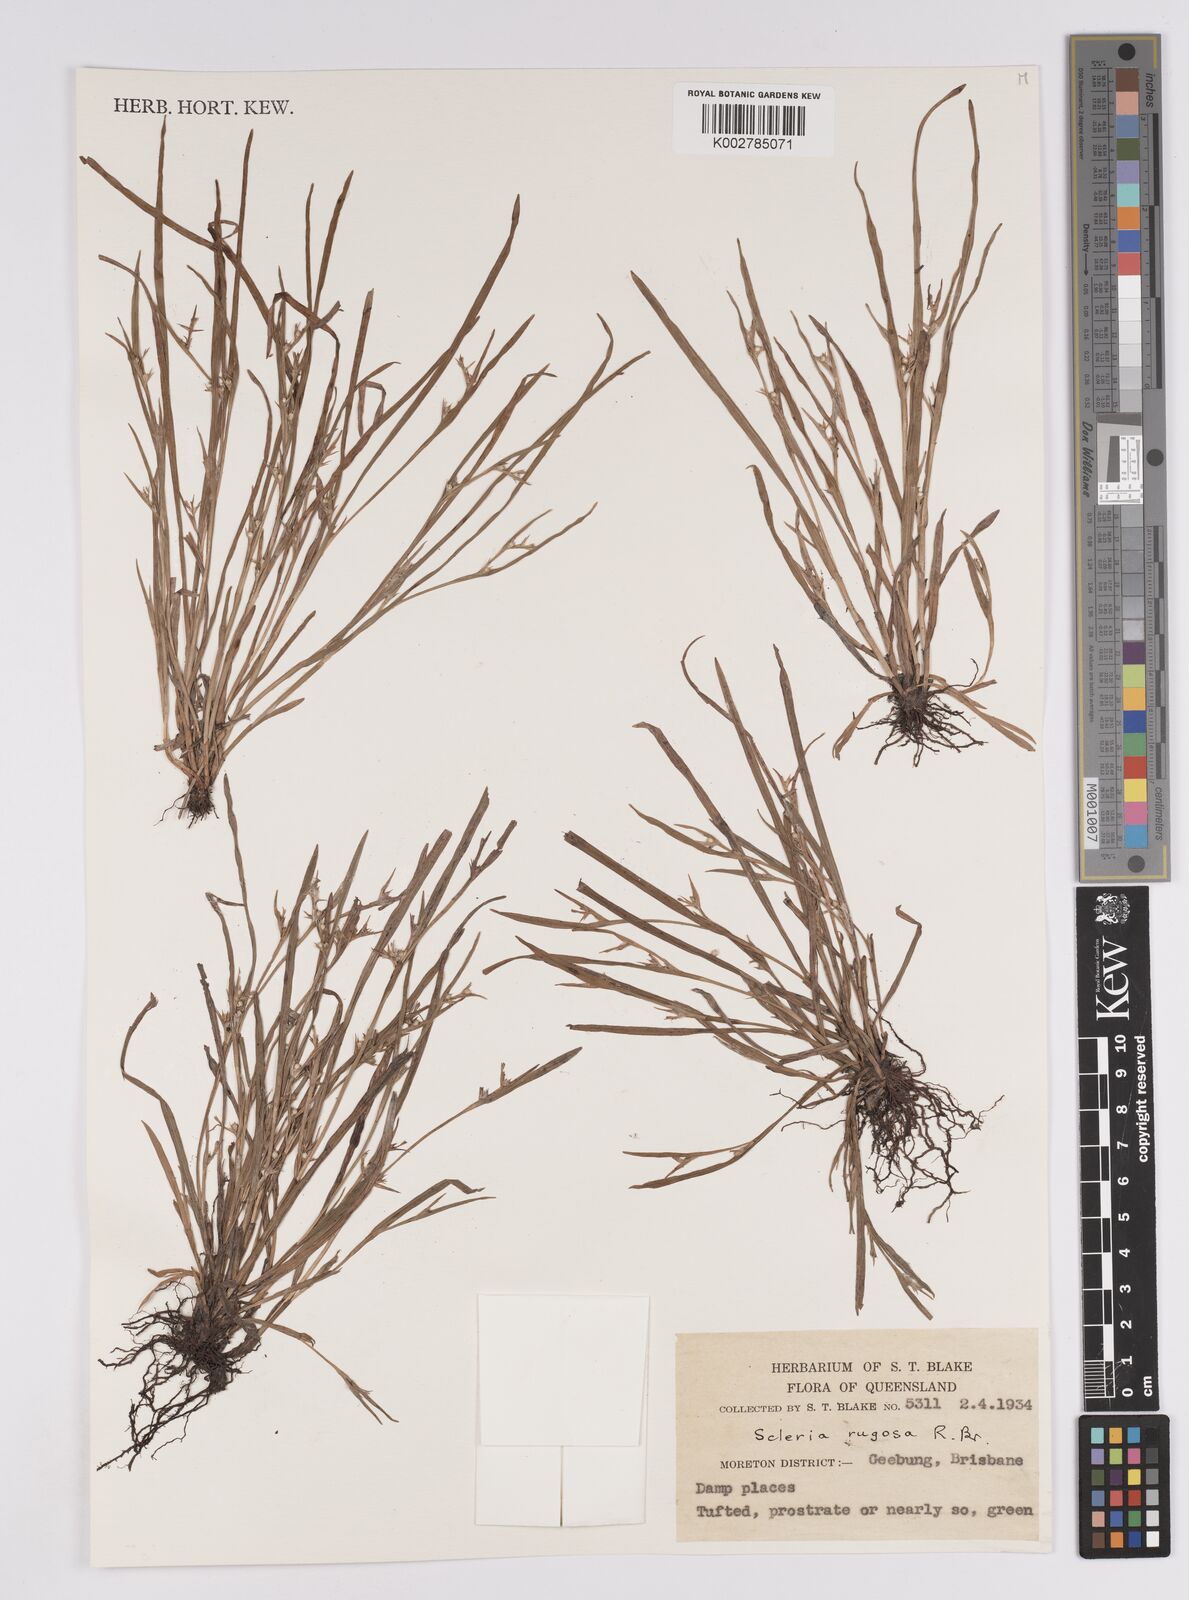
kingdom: Plantae
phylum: Tracheophyta
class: Liliopsida
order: Poales
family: Cyperaceae
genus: Scleria
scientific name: Scleria rugosa
